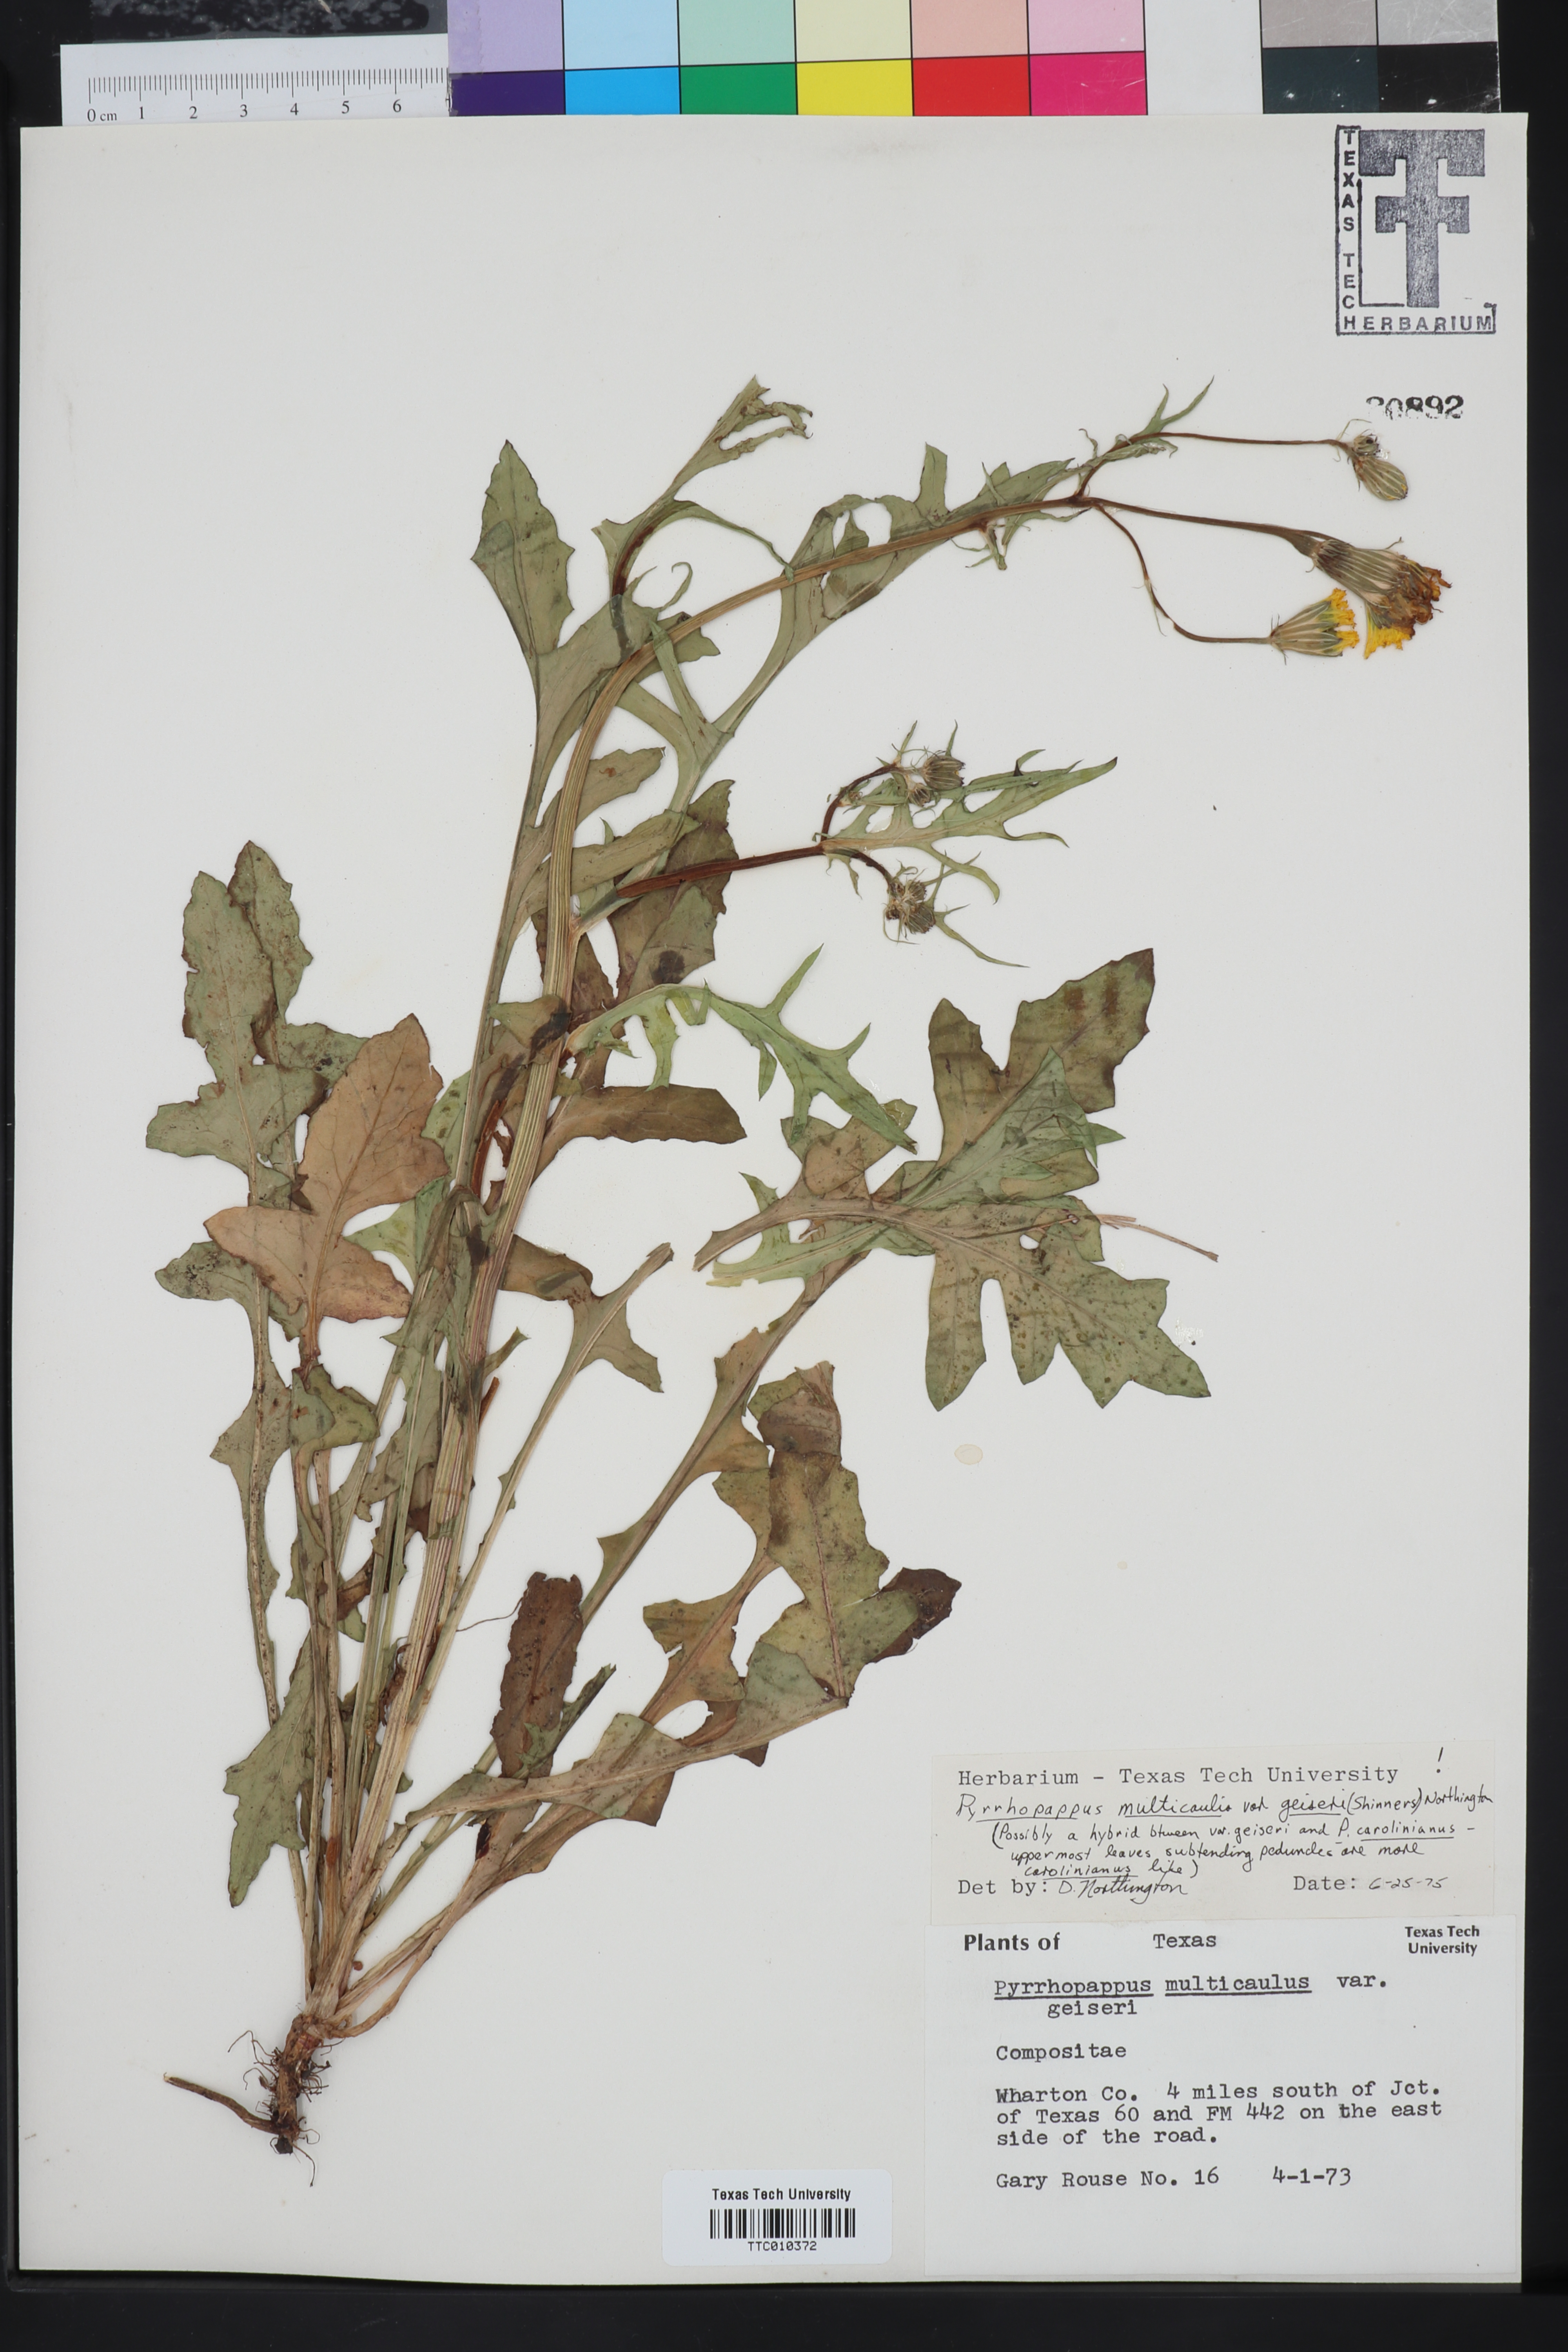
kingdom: Plantae
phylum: Tracheophyta
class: Magnoliopsida
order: Asterales
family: Asteraceae
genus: Pyrrhopappus
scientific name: Pyrrhopappus pauciflorus
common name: Texas false dandelion
